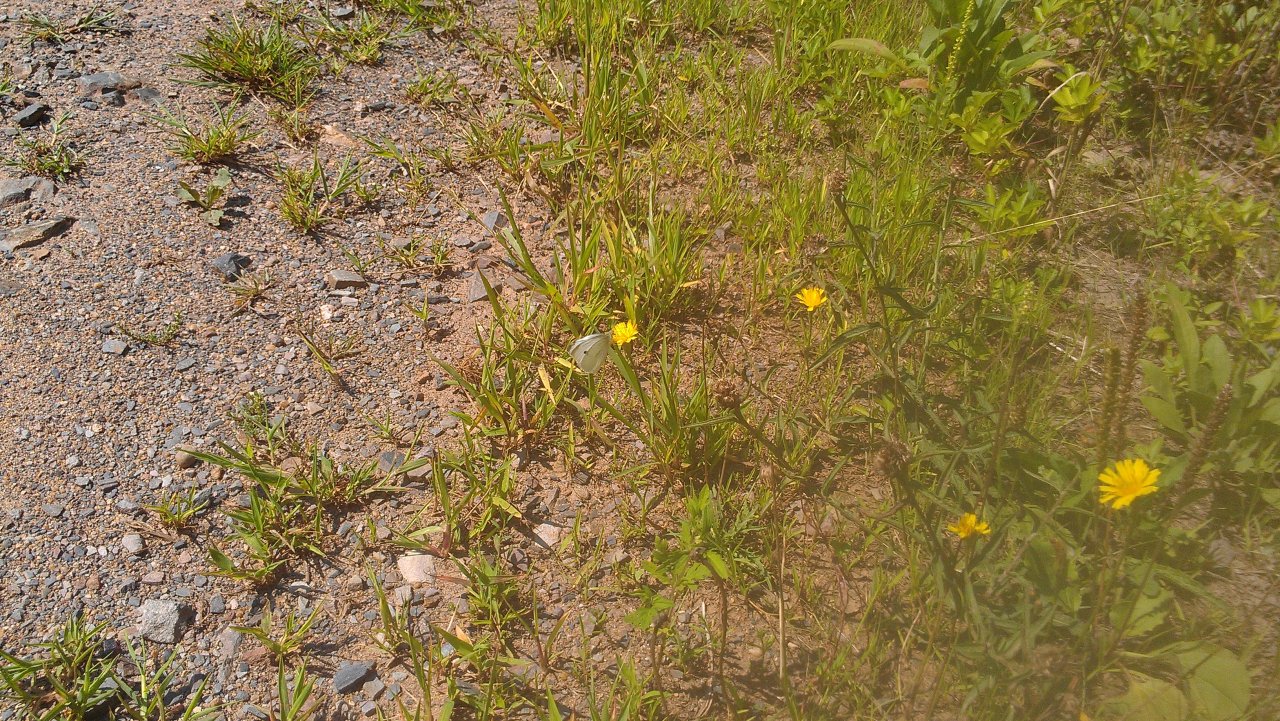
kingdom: Animalia
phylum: Arthropoda
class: Insecta
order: Lepidoptera
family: Pieridae
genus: Pieris
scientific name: Pieris rapae
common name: Cabbage White
